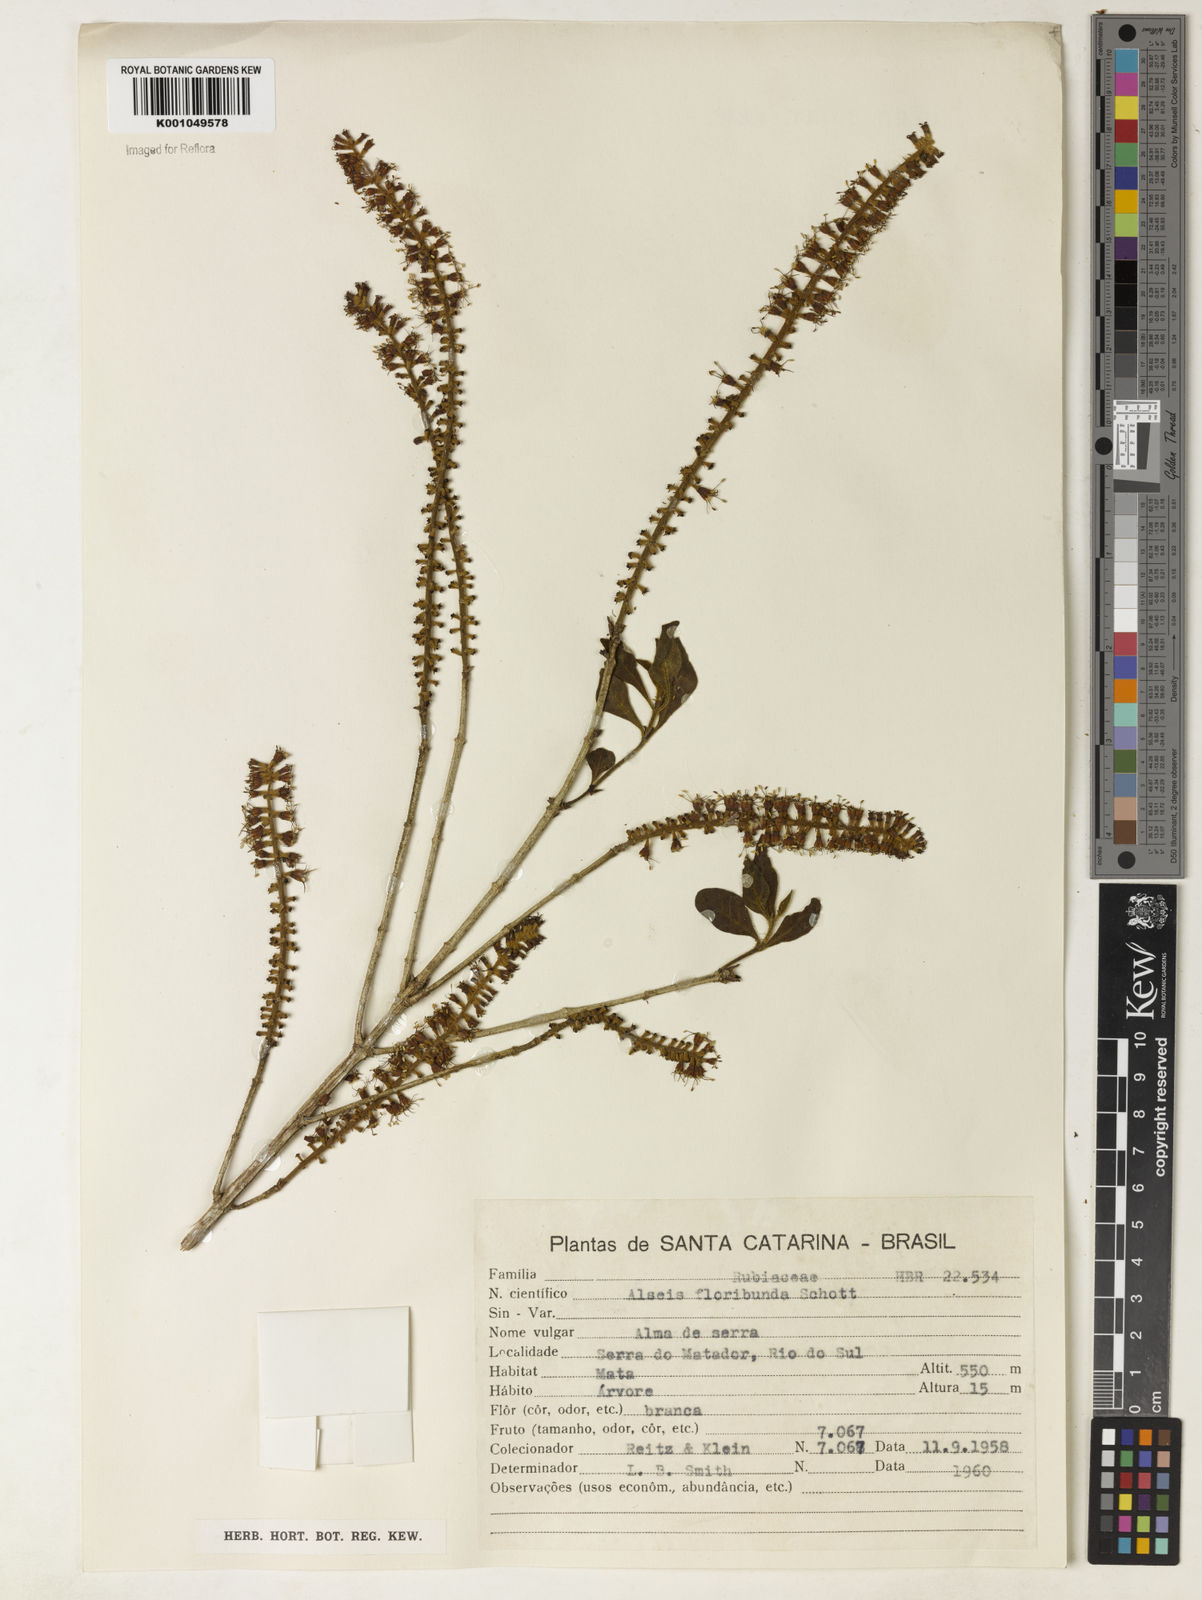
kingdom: Plantae
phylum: Tracheophyta
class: Magnoliopsida
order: Gentianales
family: Rubiaceae
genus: Alseis
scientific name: Alseis floribunda
